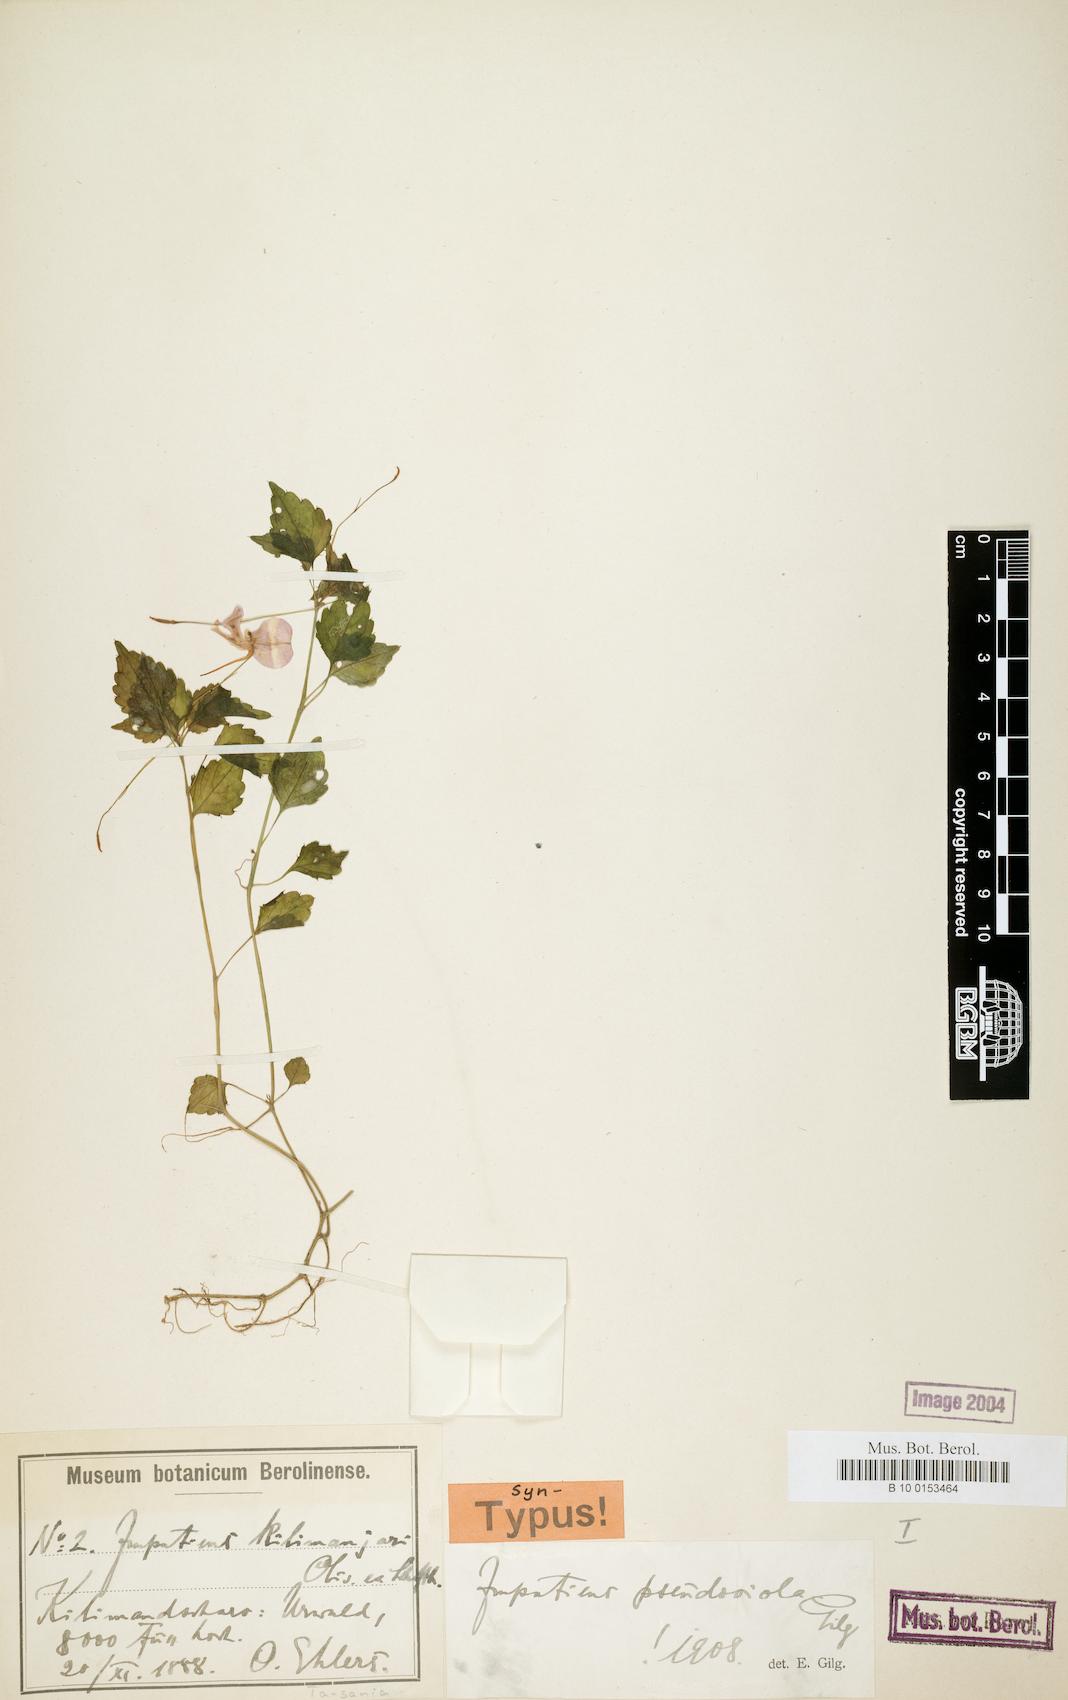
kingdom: Plantae
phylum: Tracheophyta
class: Magnoliopsida
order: Ericales
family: Balsaminaceae
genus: Impatiens
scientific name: Impatiens pseudoviola
